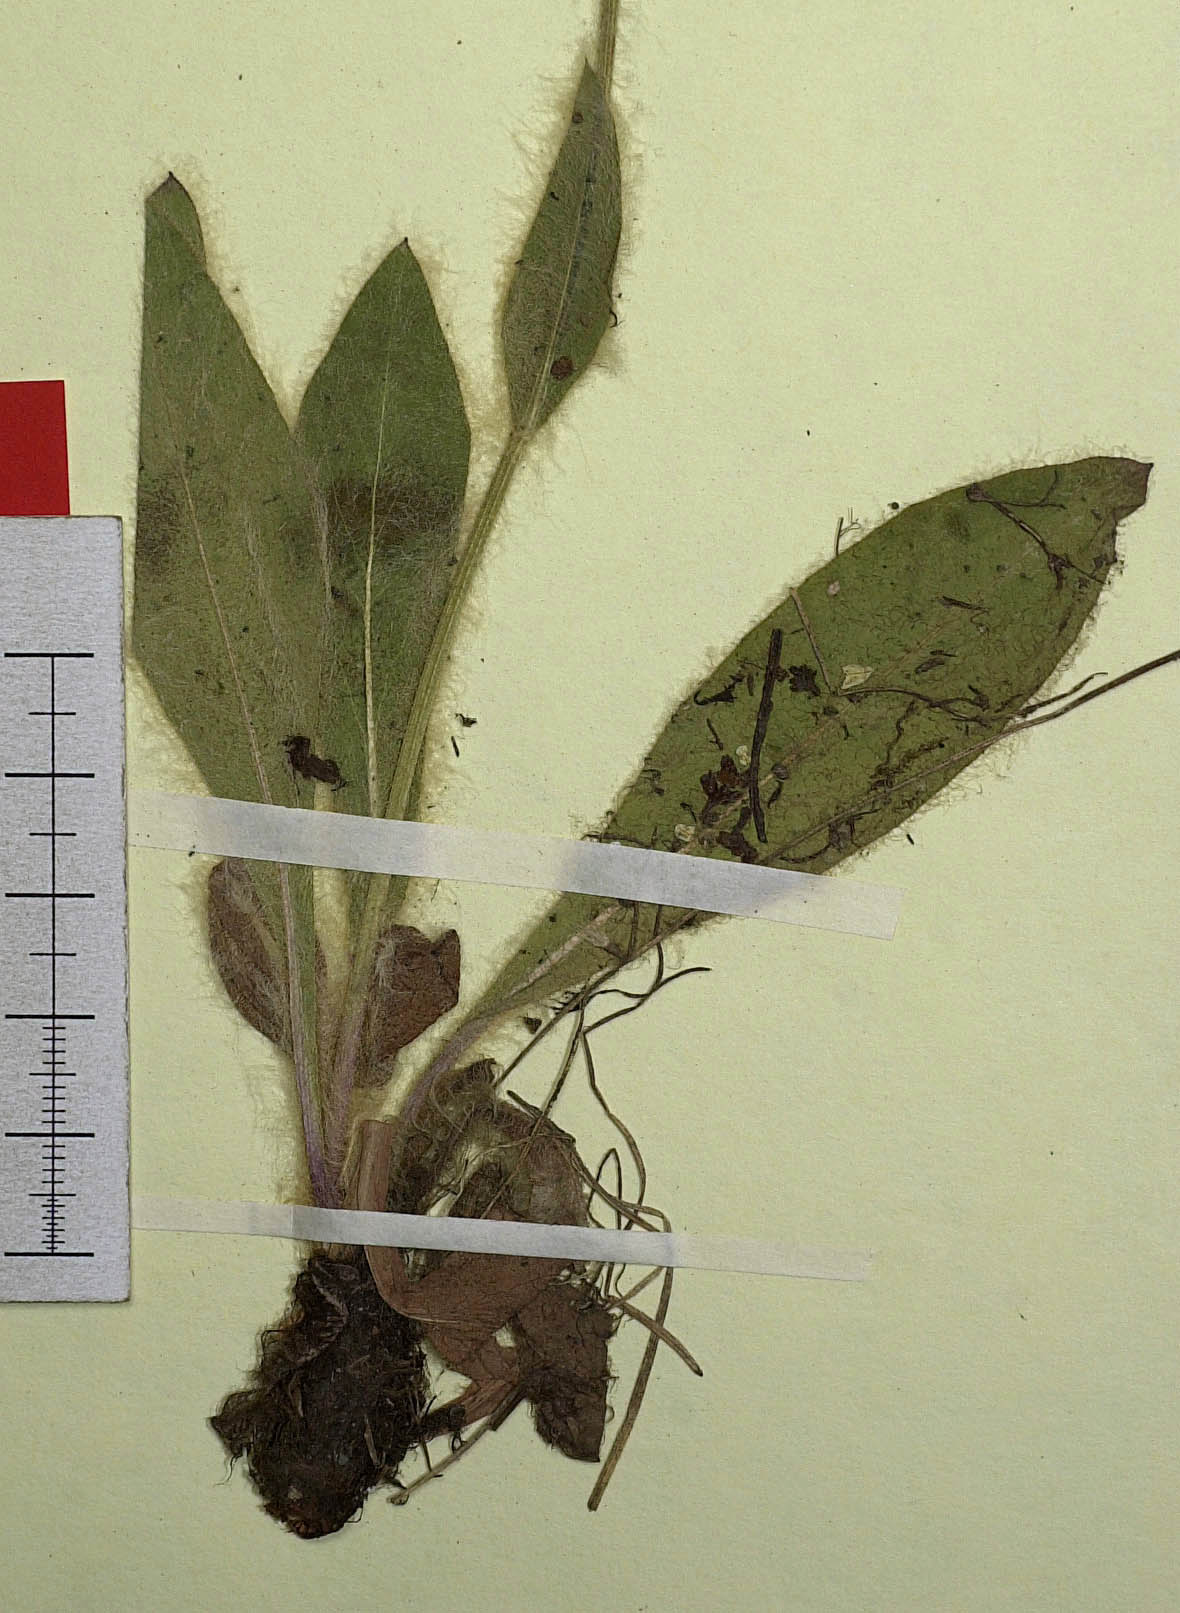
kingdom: Plantae
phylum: Tracheophyta
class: Magnoliopsida
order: Asterales
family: Asteraceae
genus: Hieracium
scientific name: Hieracium dasycraspedum
